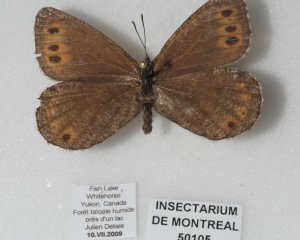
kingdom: Animalia
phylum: Arthropoda
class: Insecta
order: Lepidoptera
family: Nymphalidae
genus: Oeneis
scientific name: Oeneis jutta
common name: Jutta Arctic
